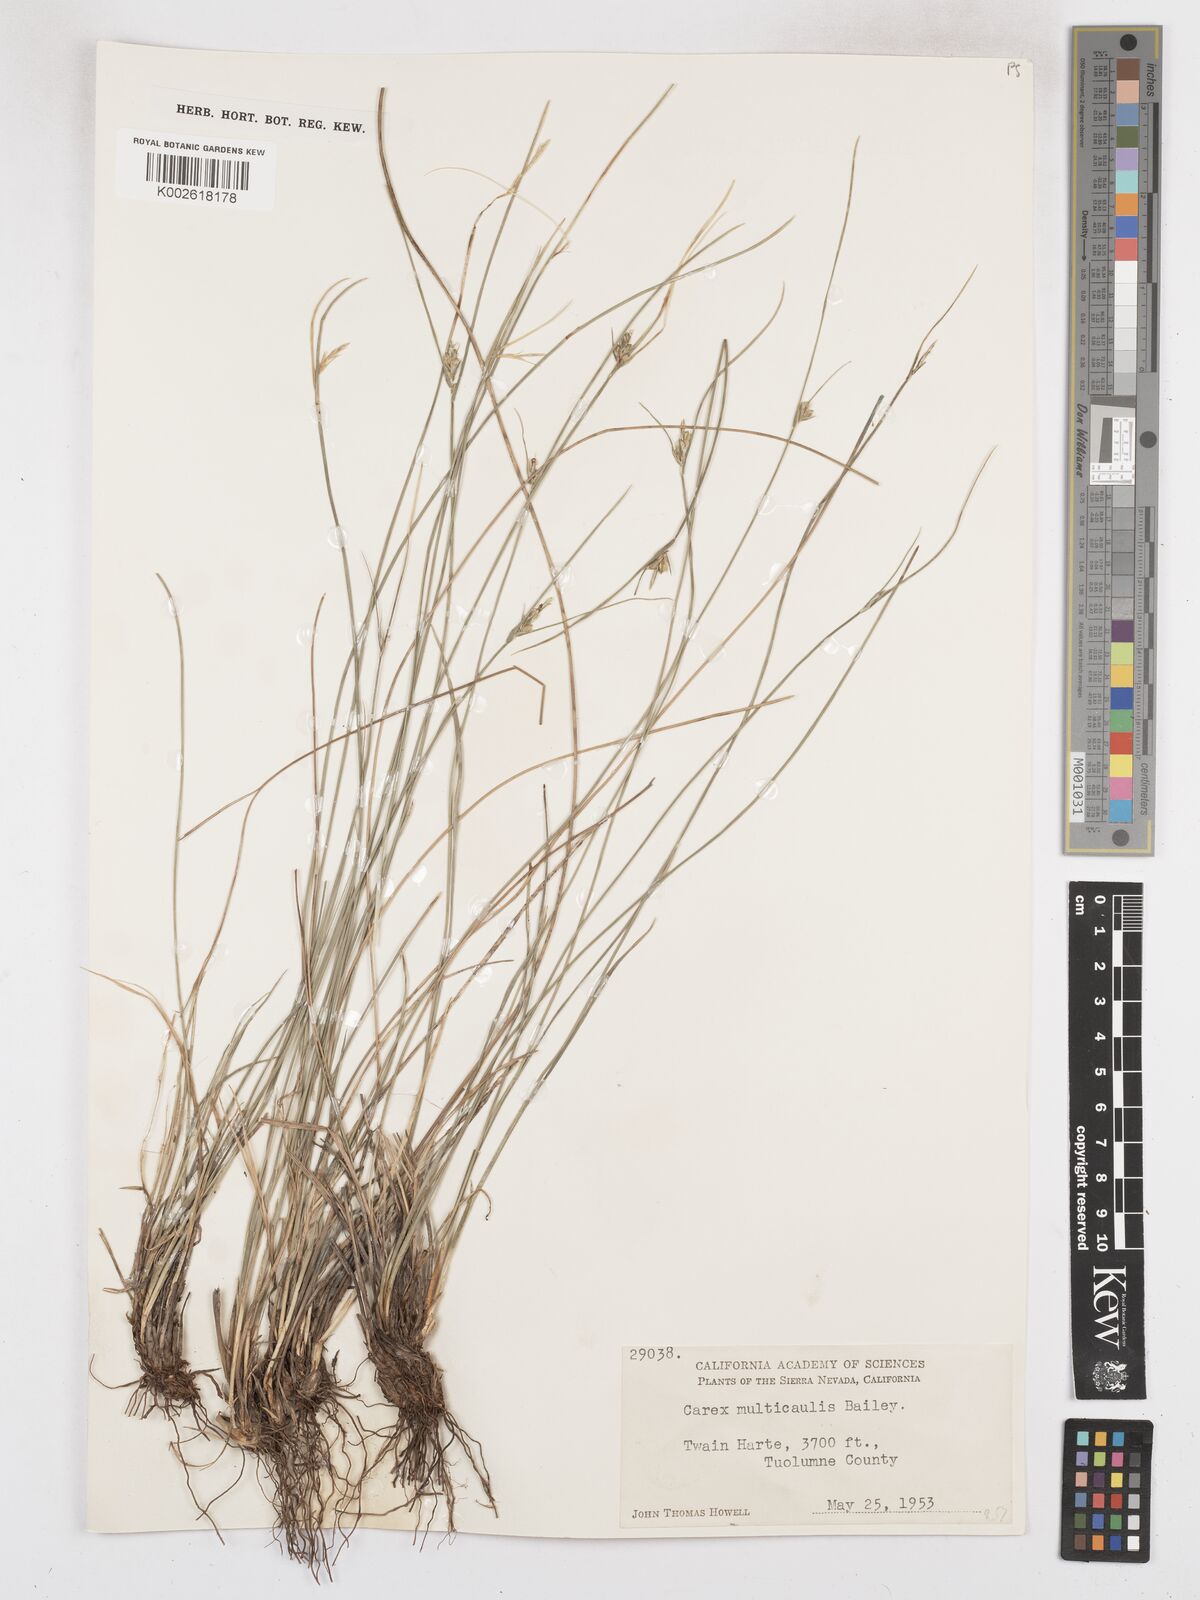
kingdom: Plantae
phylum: Tracheophyta
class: Liliopsida
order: Poales
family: Cyperaceae
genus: Carex
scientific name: Carex multicaulis
